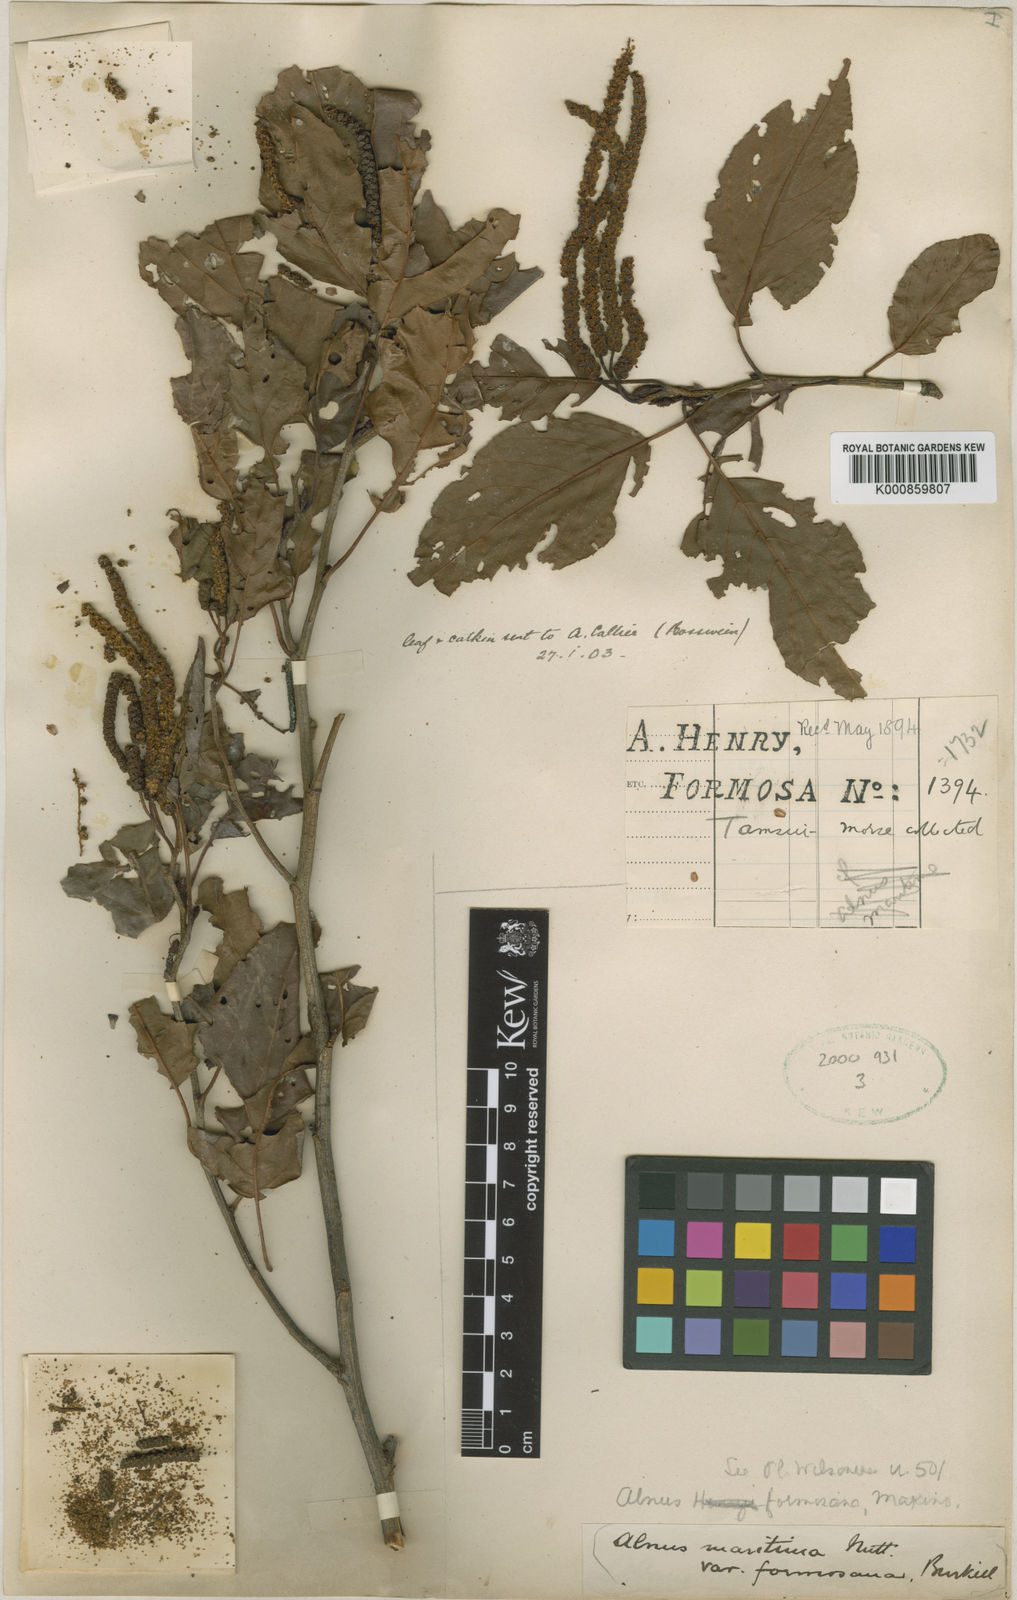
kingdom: Plantae
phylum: Tracheophyta
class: Magnoliopsida
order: Fagales
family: Betulaceae
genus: Alnus
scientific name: Alnus formosana
